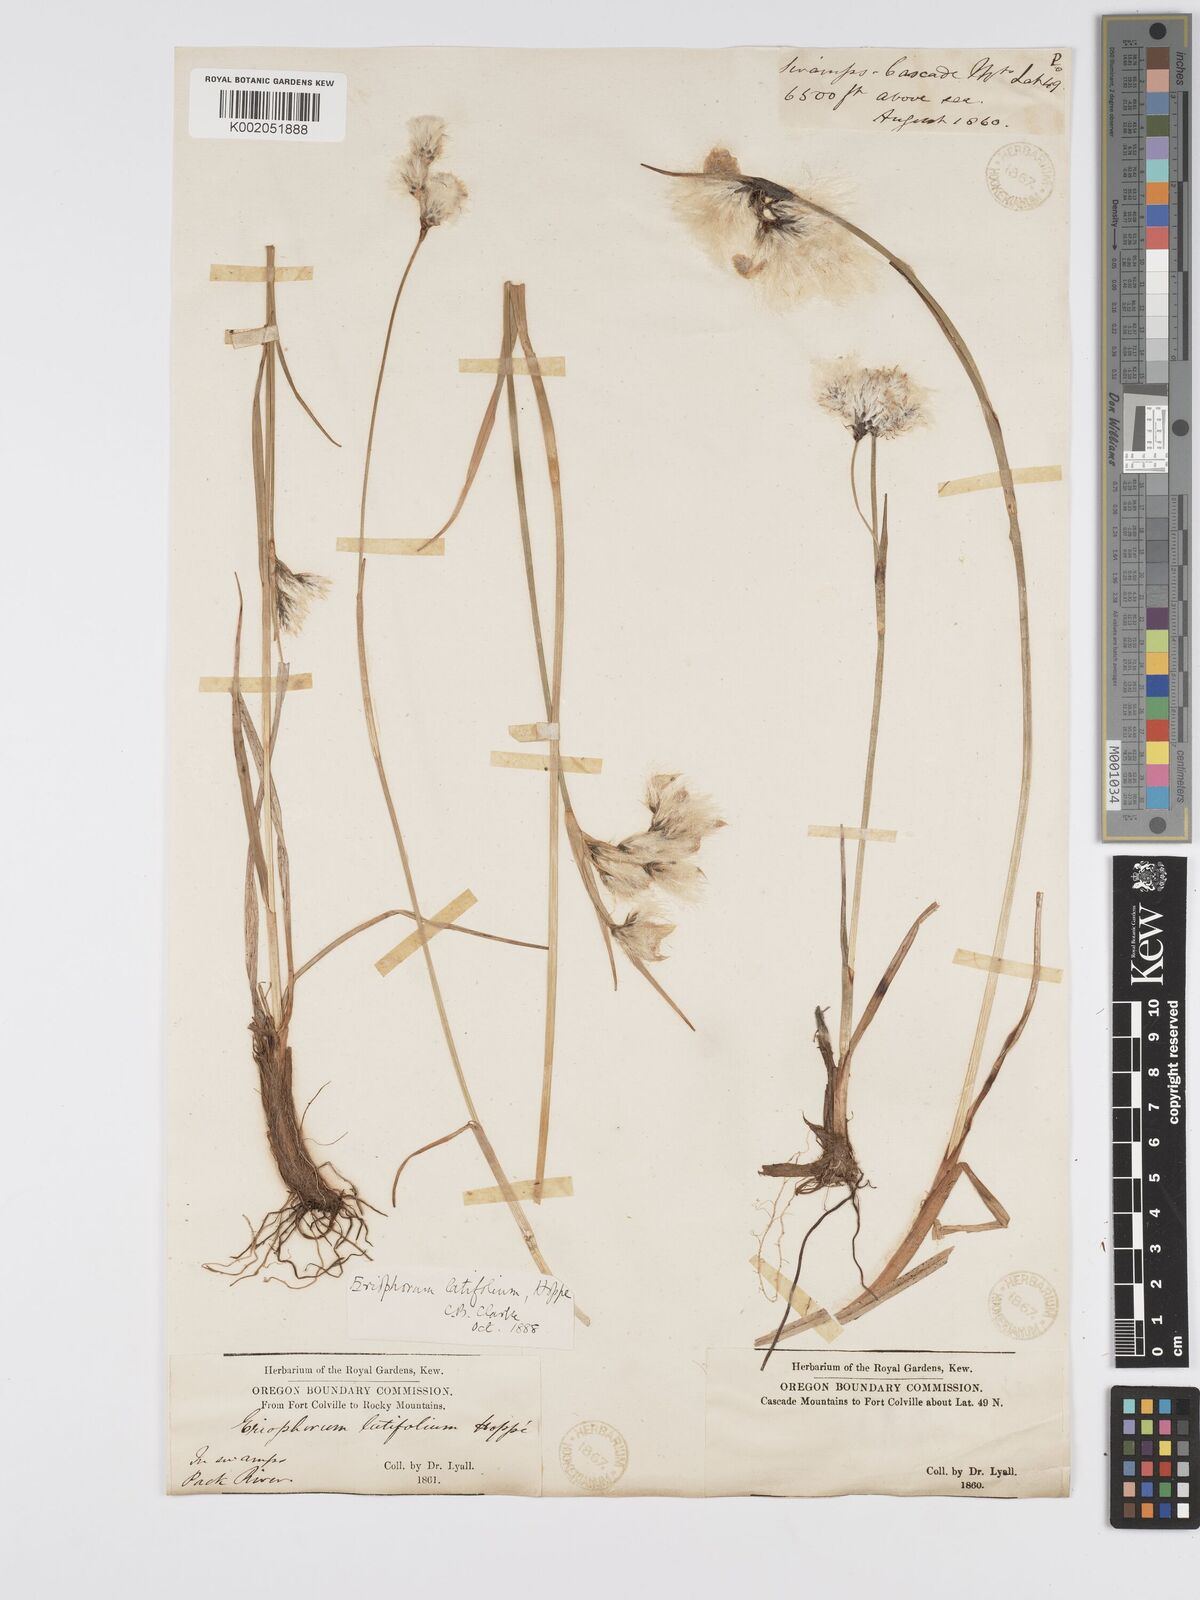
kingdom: Plantae
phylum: Tracheophyta
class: Liliopsida
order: Poales
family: Cyperaceae
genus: Eriophorum
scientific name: Eriophorum latifolium
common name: Broad-leaved cottongrass
